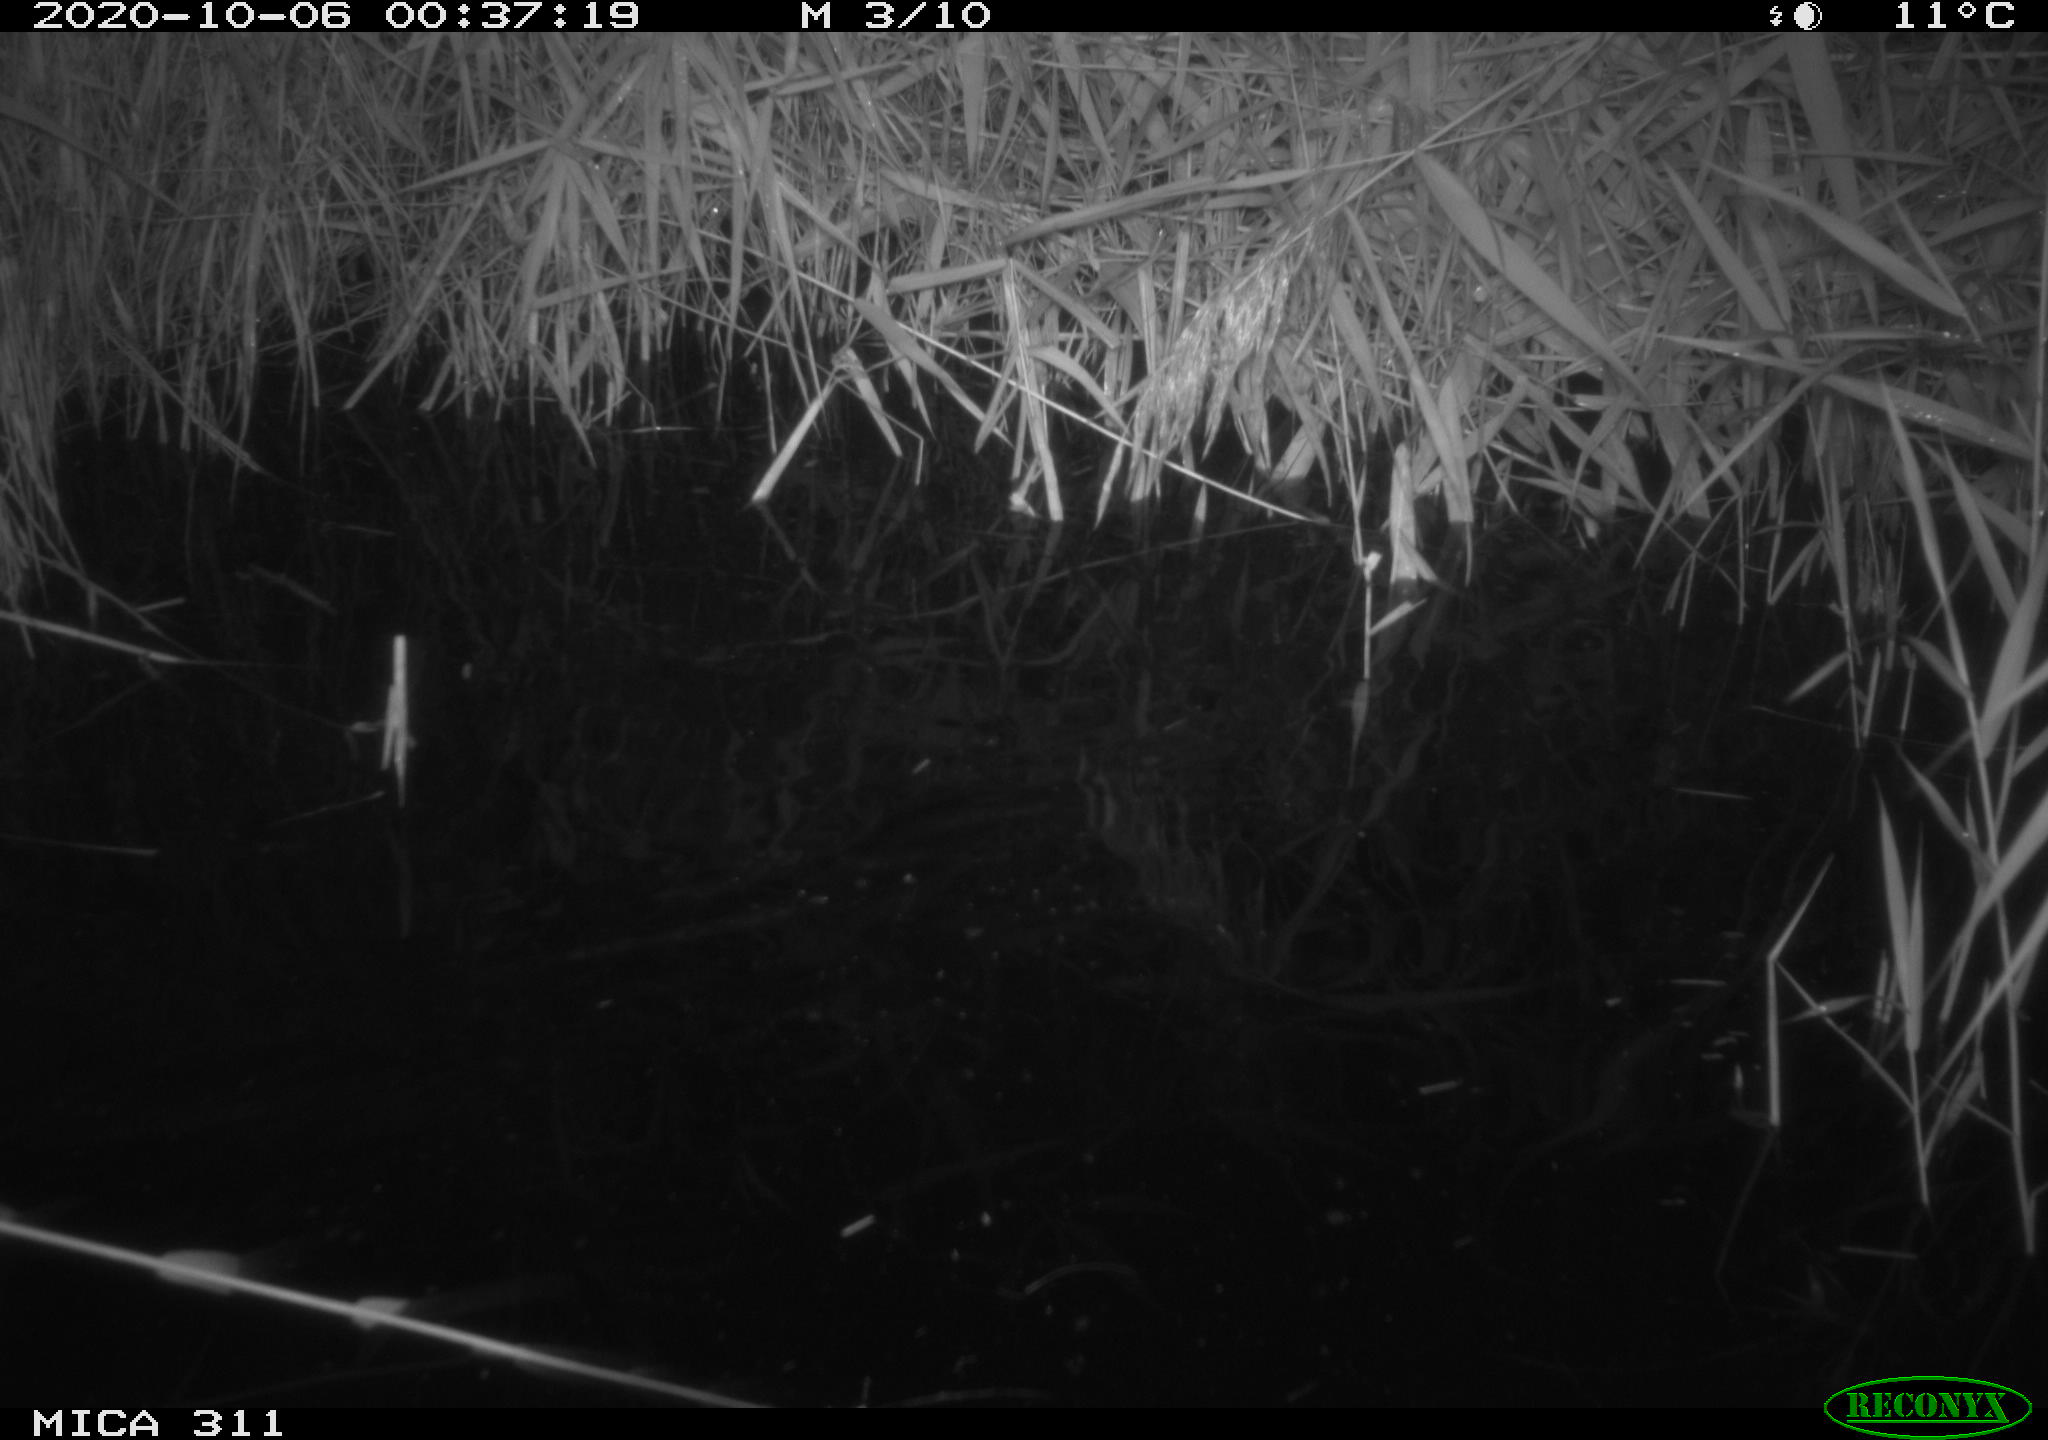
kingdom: Animalia
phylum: Chordata
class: Mammalia
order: Rodentia
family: Muridae
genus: Rattus
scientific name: Rattus norvegicus
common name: Brown rat
